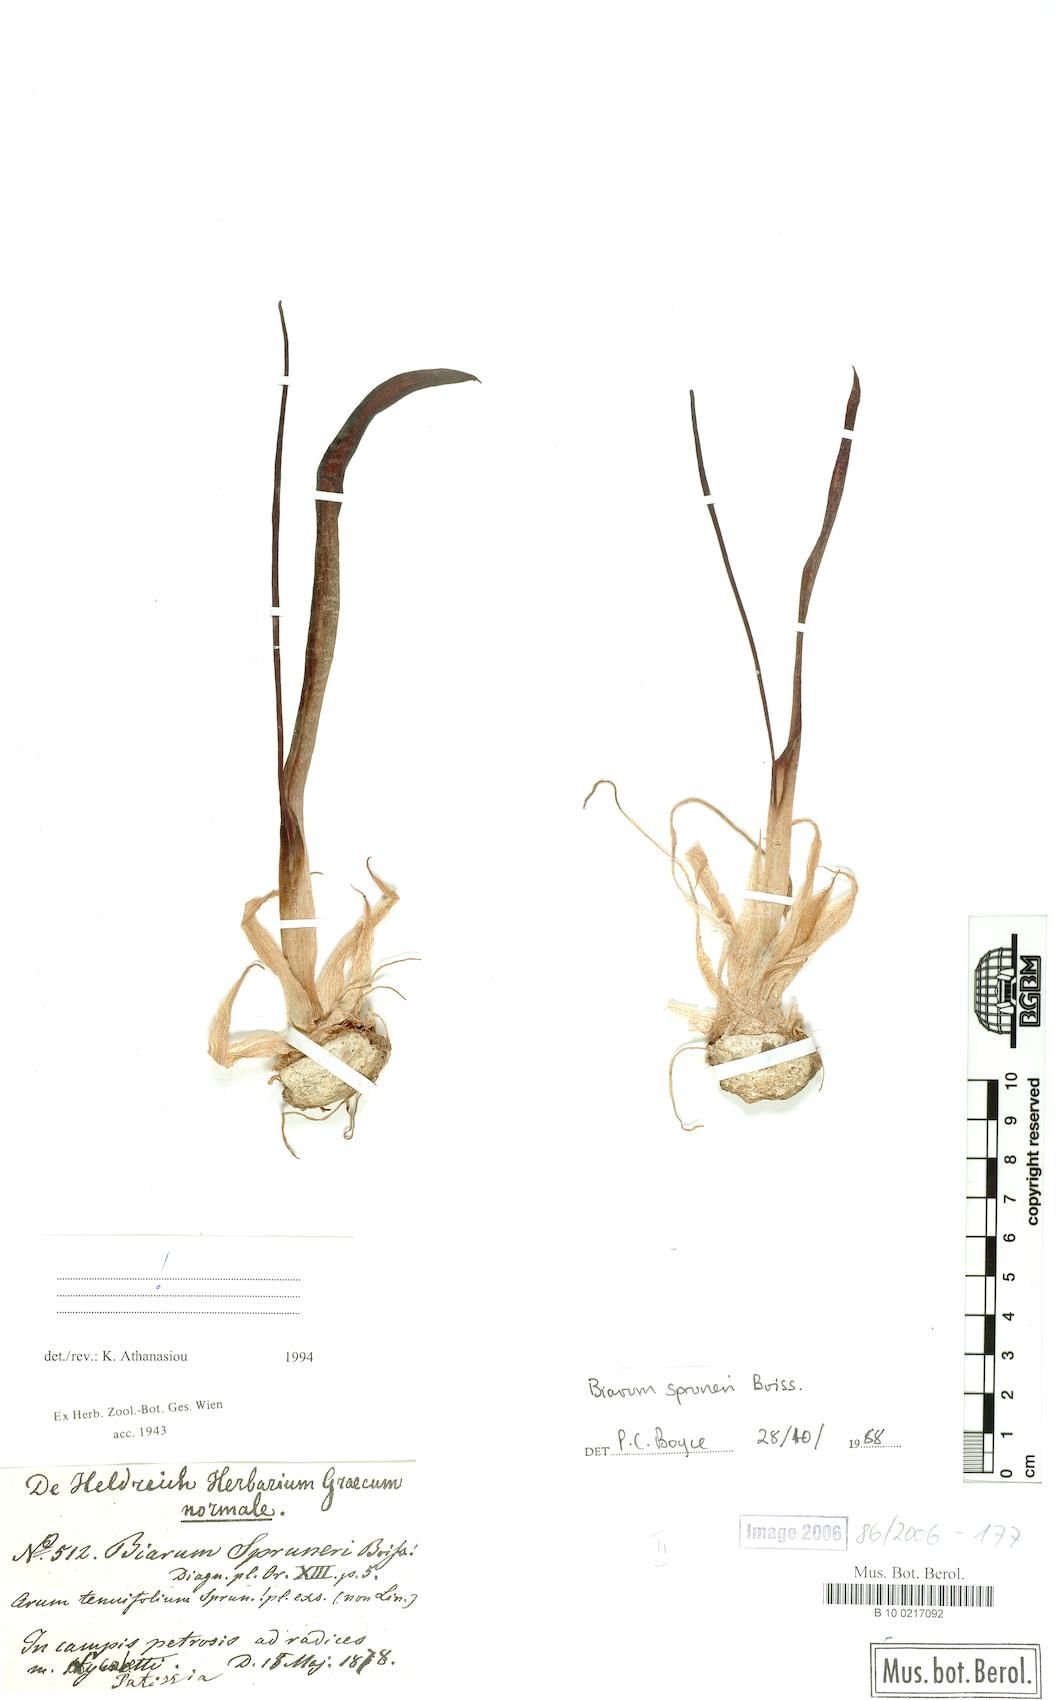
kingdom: Plantae
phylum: Tracheophyta
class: Liliopsida
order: Alismatales
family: Araceae
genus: Biarum
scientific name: Biarum rhopalospadix
